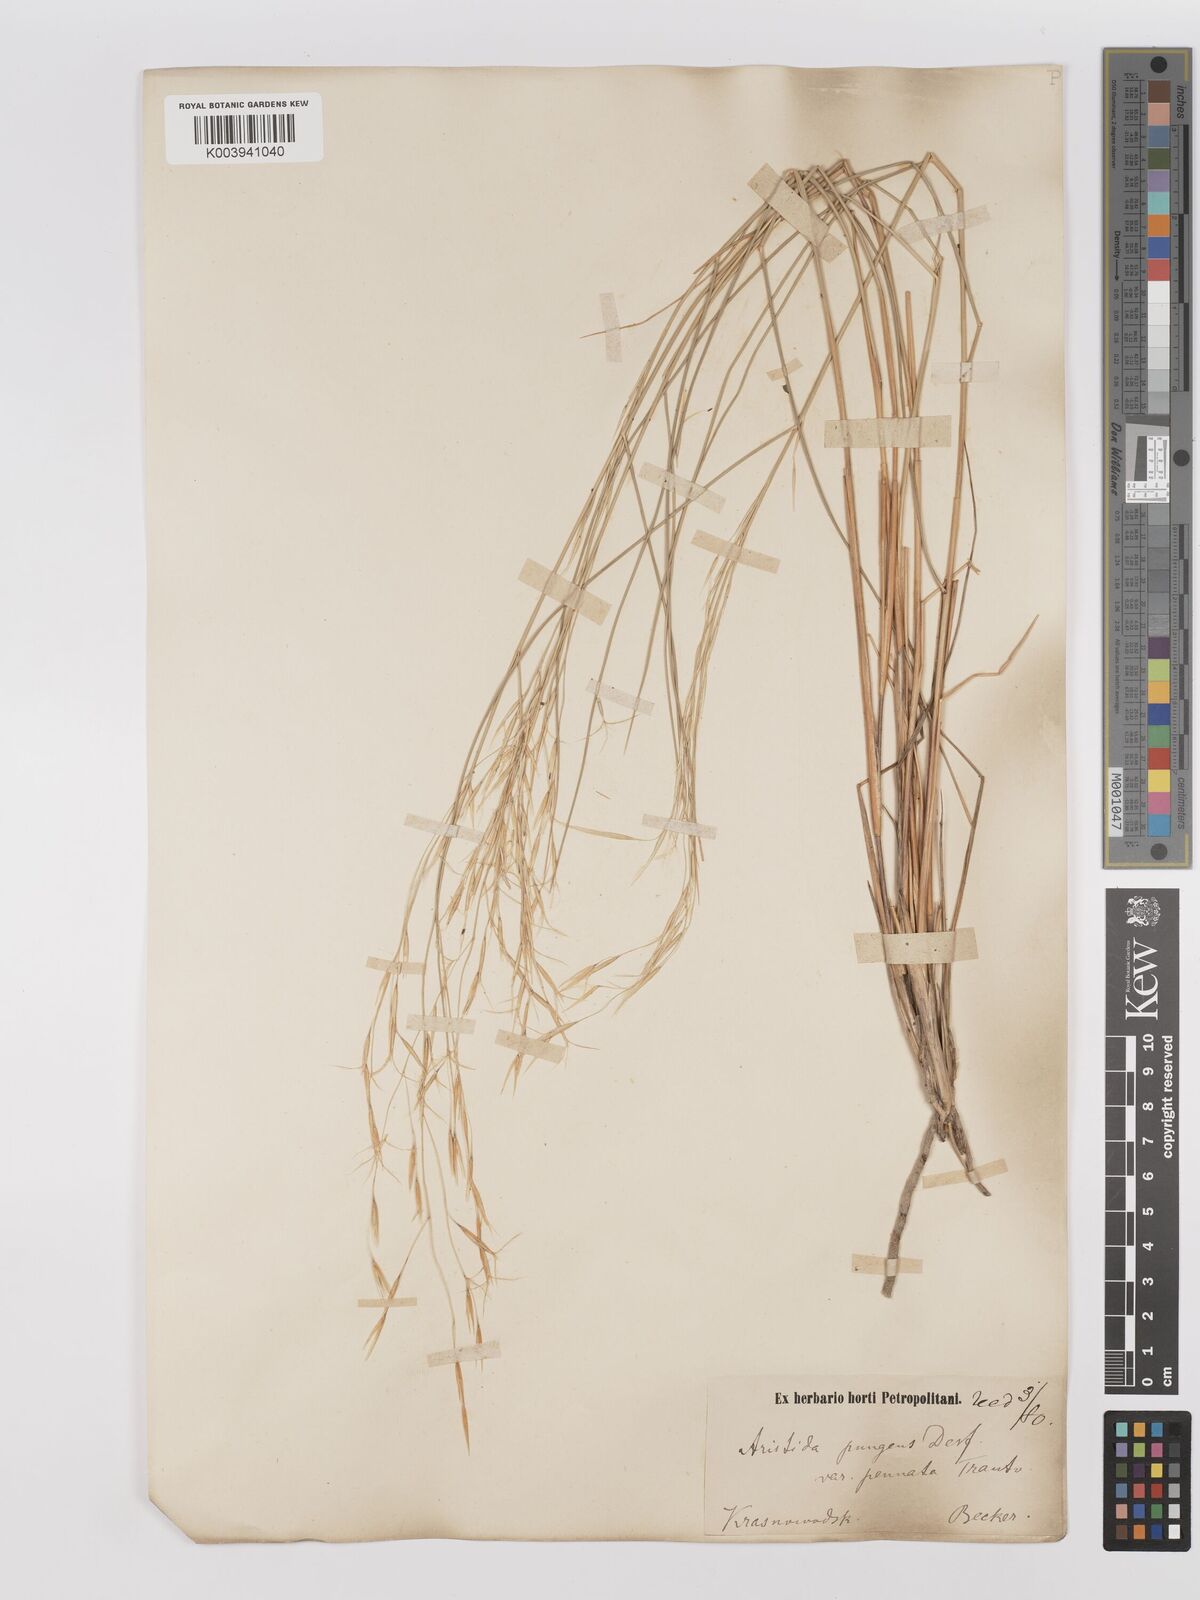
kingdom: Plantae
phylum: Tracheophyta
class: Liliopsida
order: Poales
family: Poaceae
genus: Stipagrostis
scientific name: Stipagrostis pungens
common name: Three-awn grass
